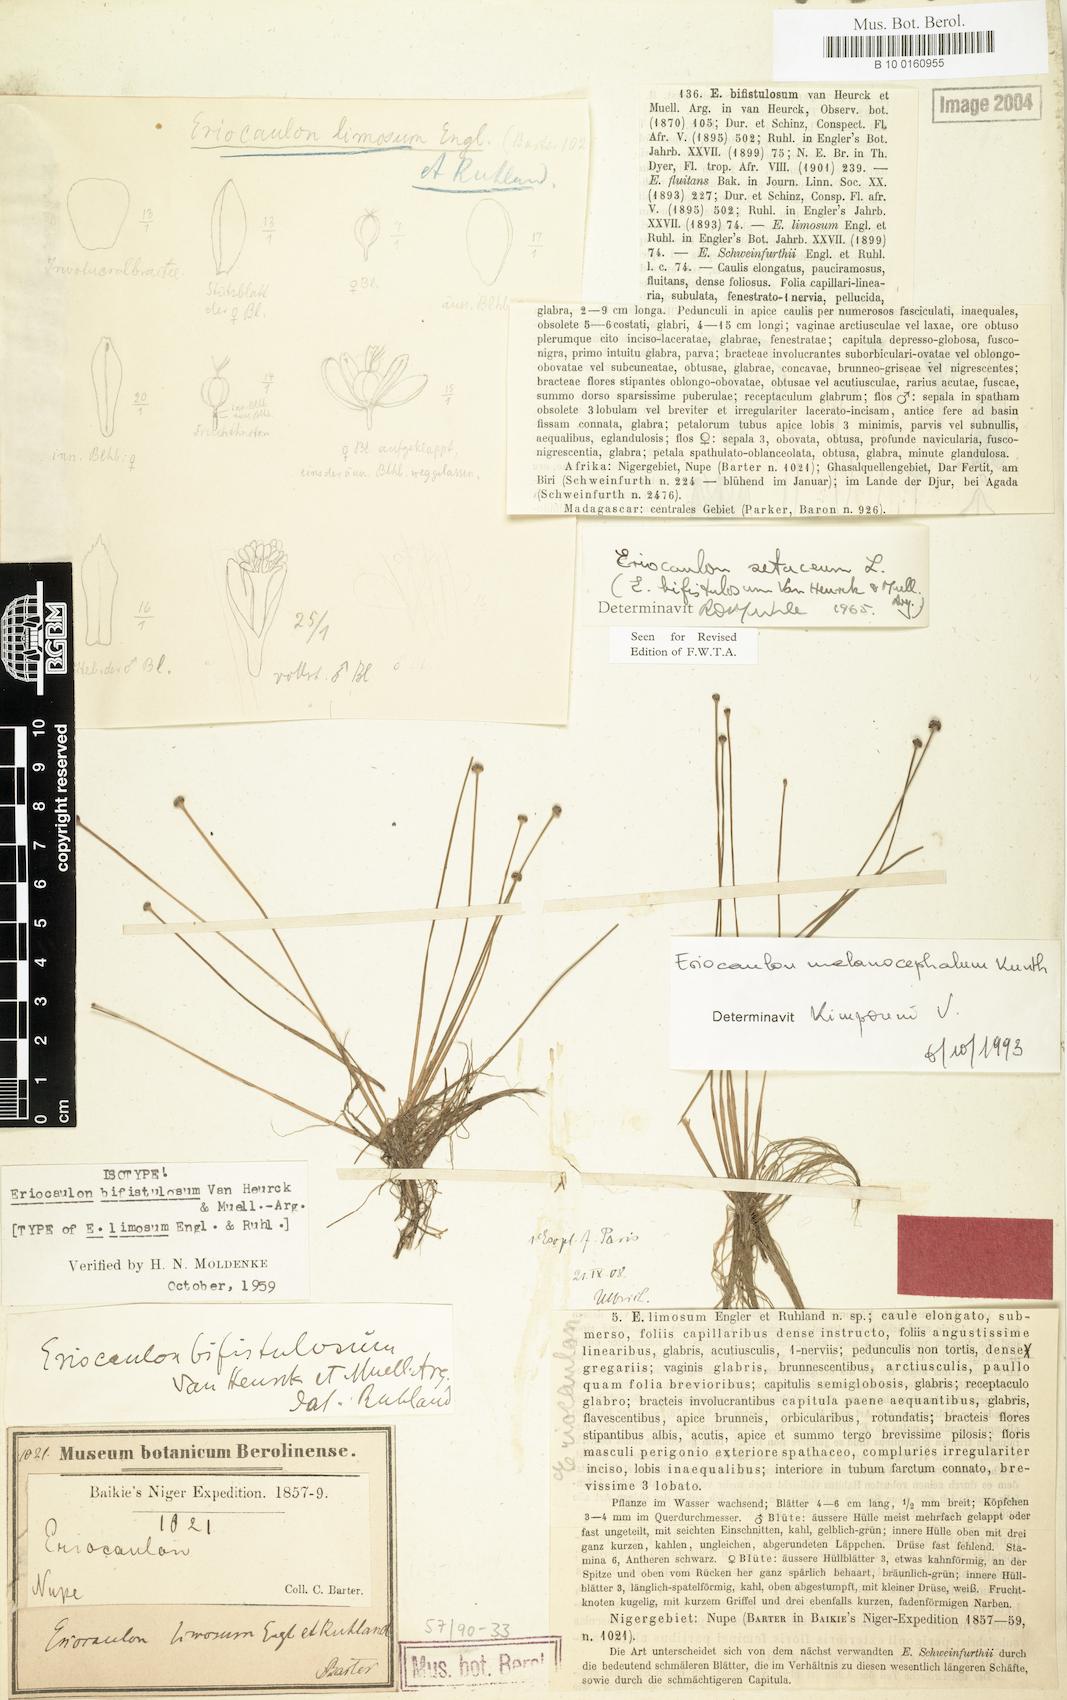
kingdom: Plantae
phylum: Tracheophyta
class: Liliopsida
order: Poales
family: Eriocaulaceae
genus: Eriocaulon
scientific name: Eriocaulon setaceum
